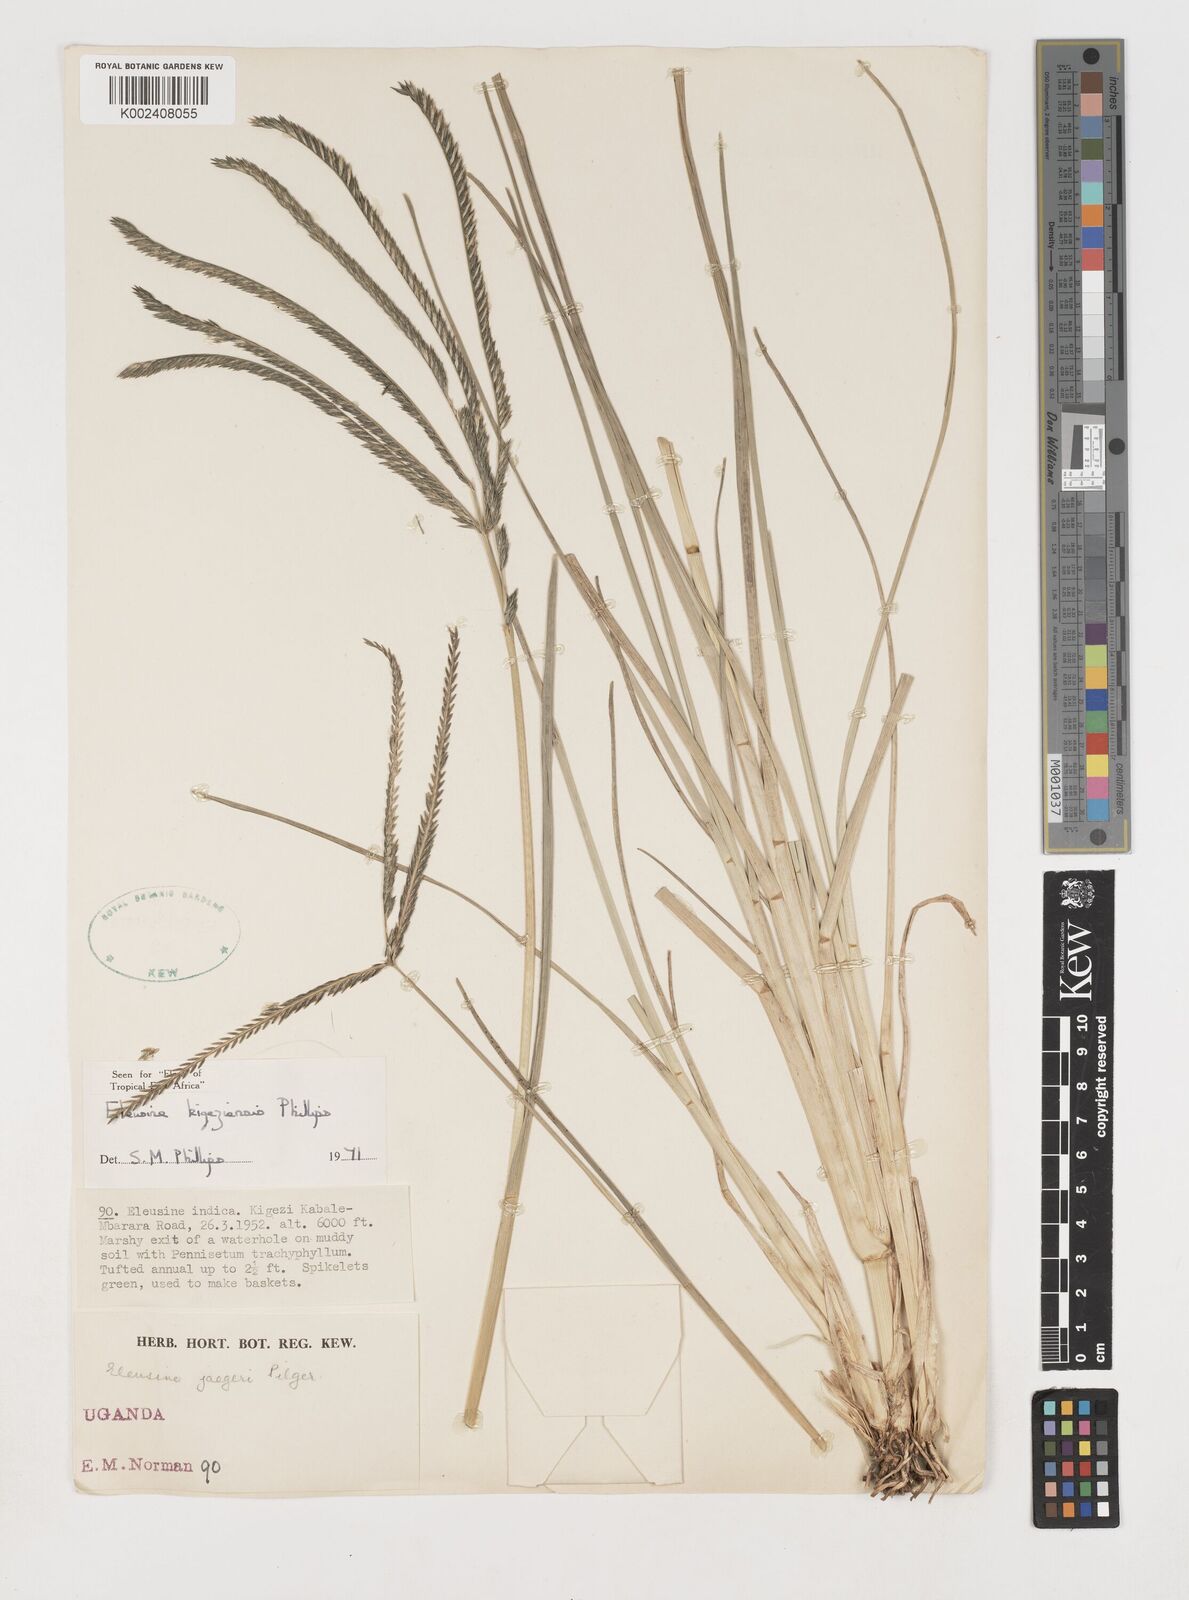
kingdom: Plantae
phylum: Tracheophyta
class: Liliopsida
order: Poales
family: Poaceae
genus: Eleusine
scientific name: Eleusine kigeziensis
